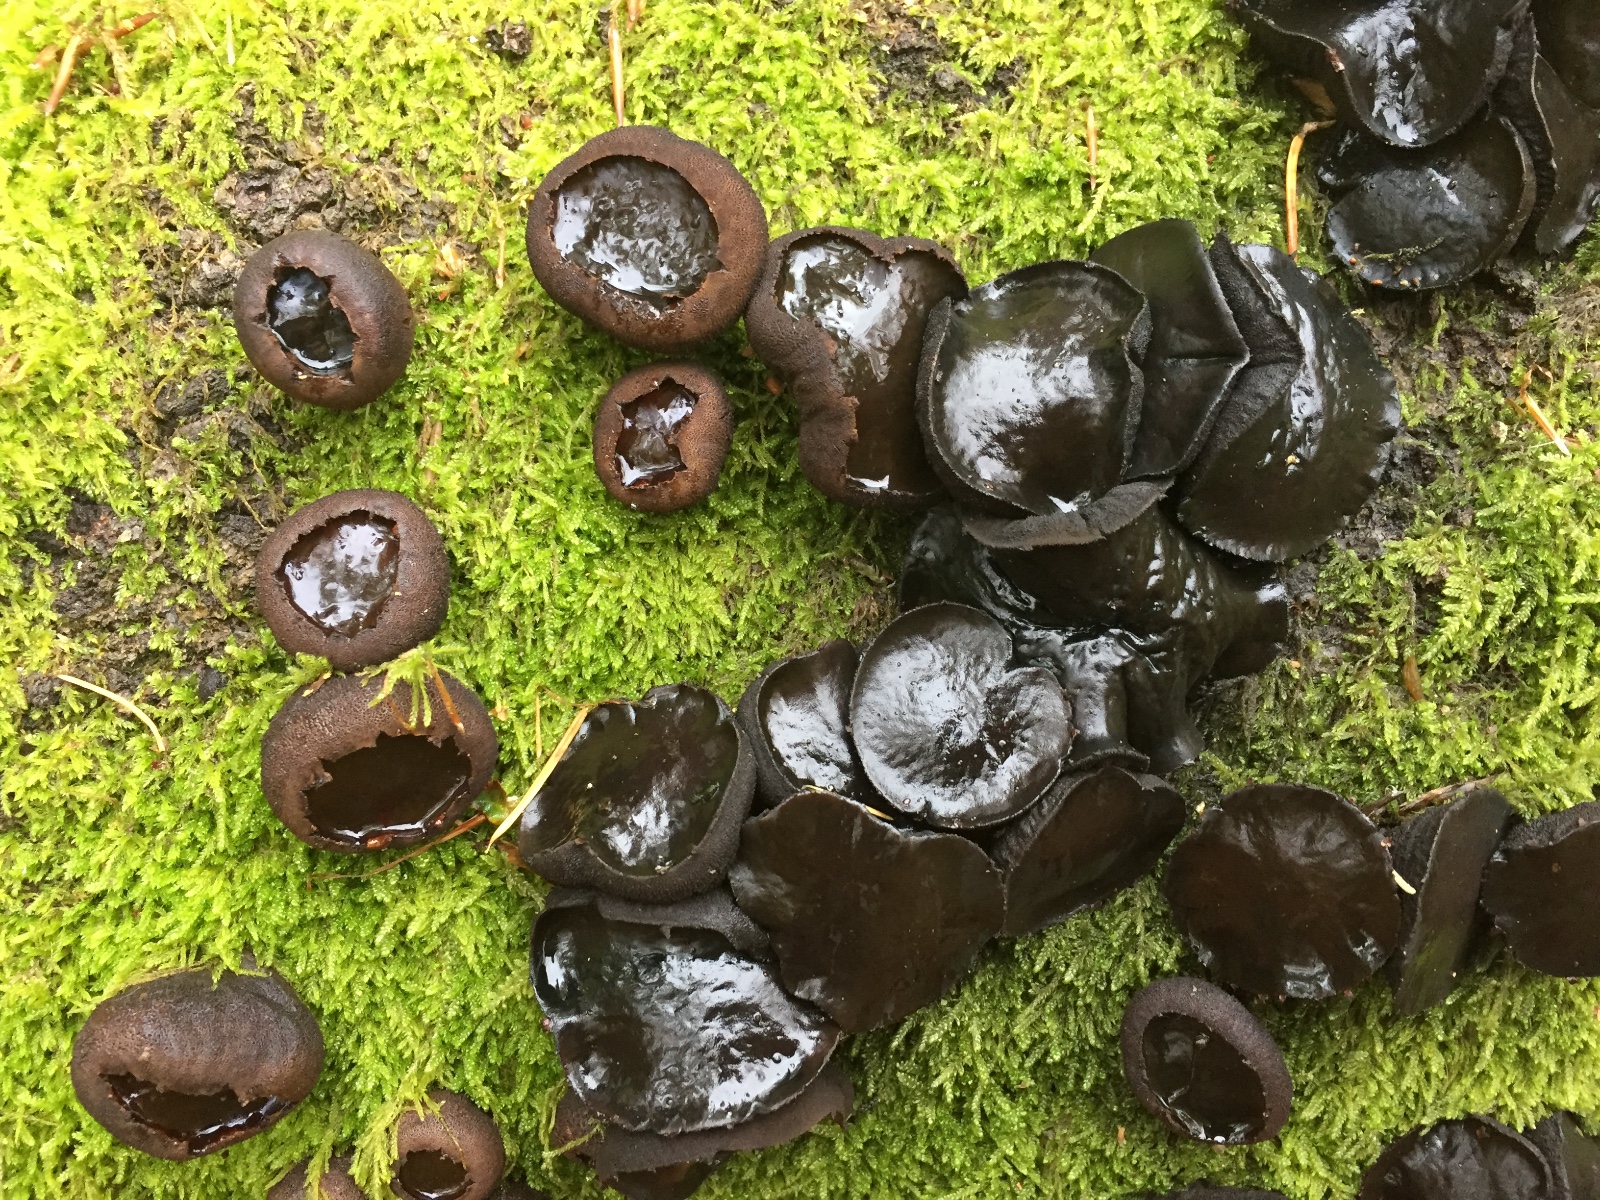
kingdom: Fungi
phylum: Ascomycota
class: Leotiomycetes
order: Phacidiales
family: Phacidiaceae
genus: Bulgaria
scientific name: Bulgaria inquinans
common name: afsmittende topsvamp
